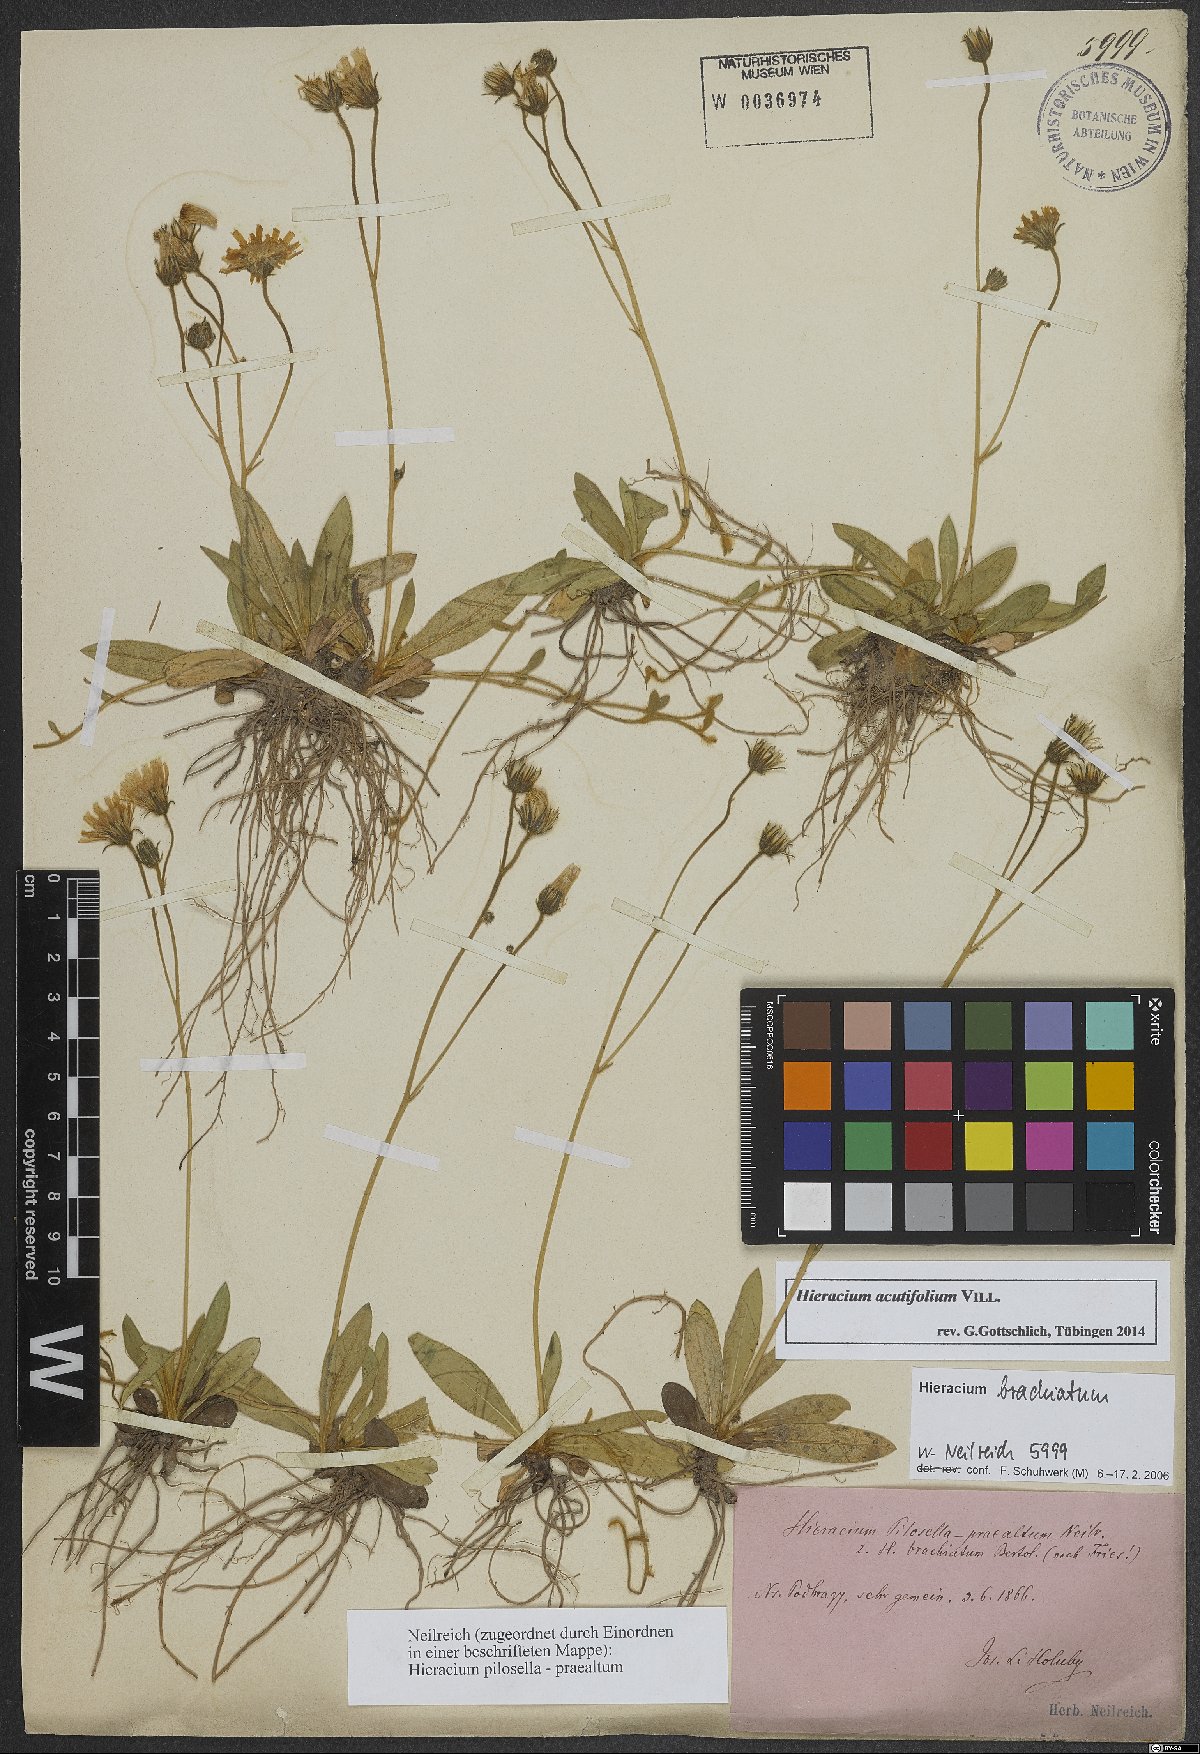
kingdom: Plantae
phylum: Tracheophyta
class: Magnoliopsida
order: Asterales
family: Asteraceae
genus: Pilosella
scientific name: Pilosella acutifolia
